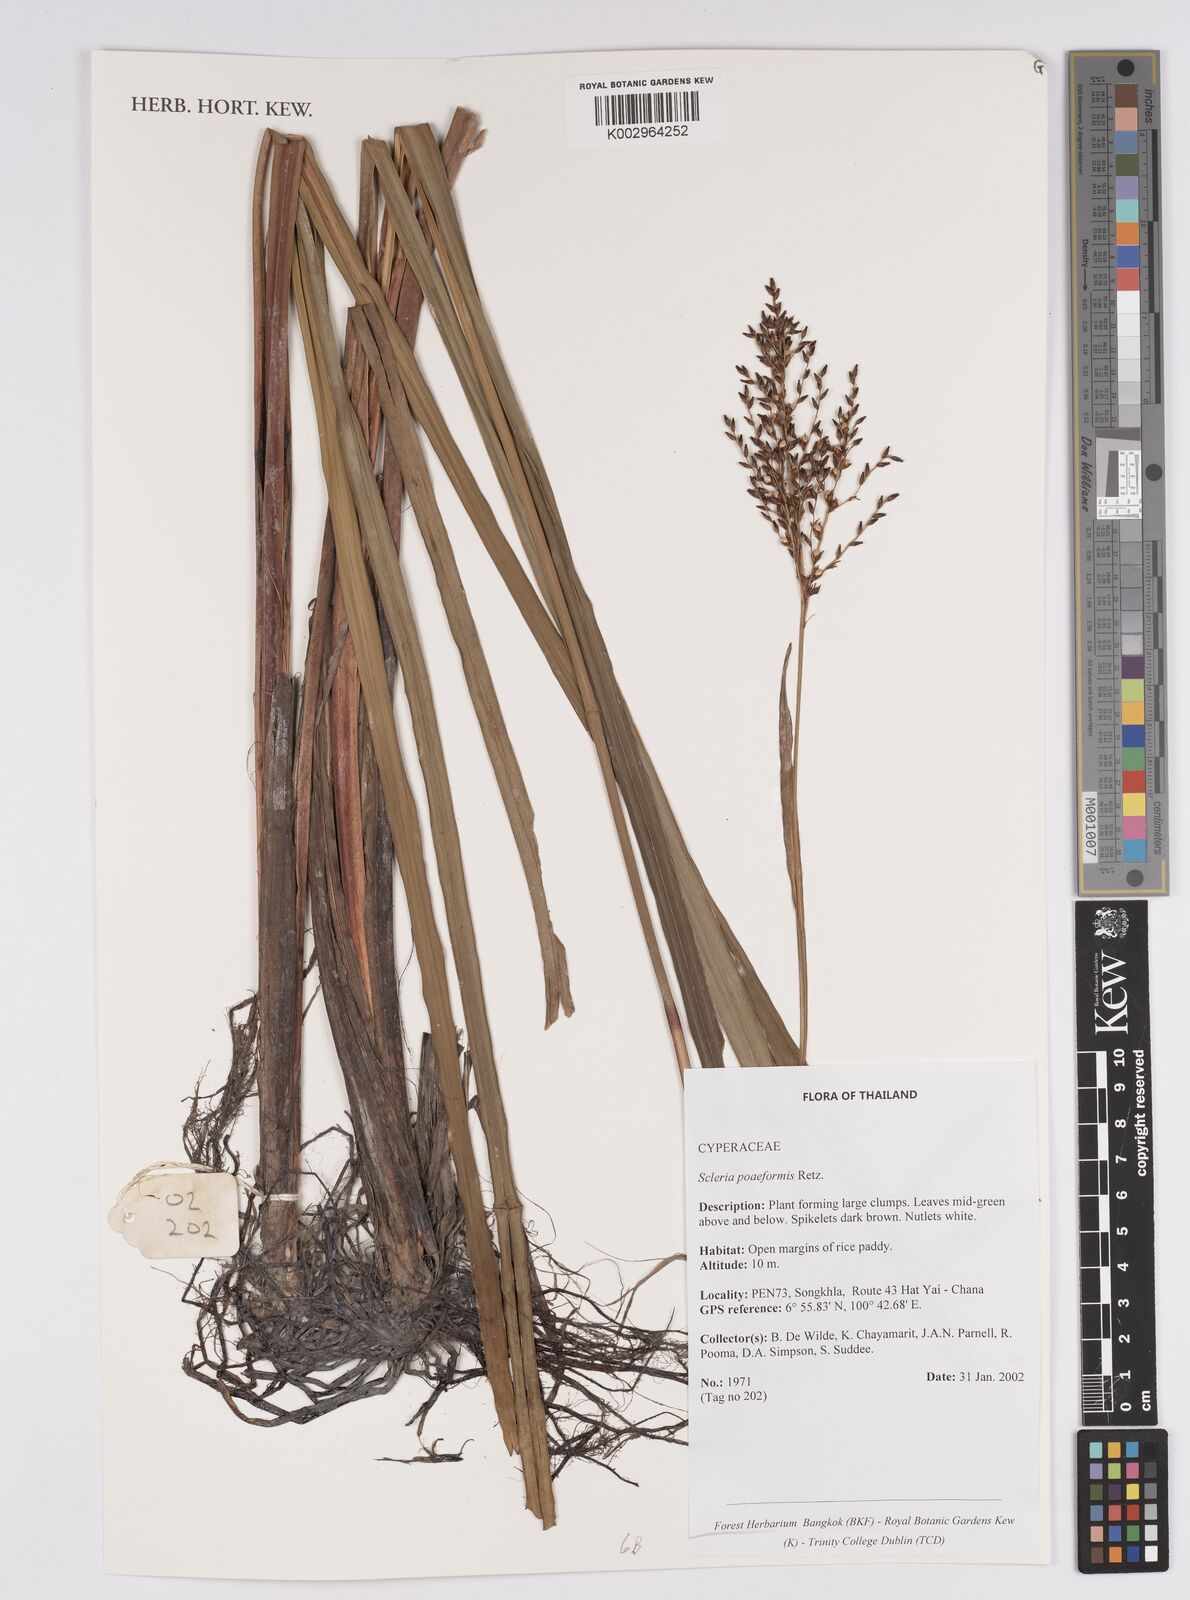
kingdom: Plantae
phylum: Tracheophyta
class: Liliopsida
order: Poales
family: Cyperaceae
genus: Scleria
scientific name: Scleria poiformis
